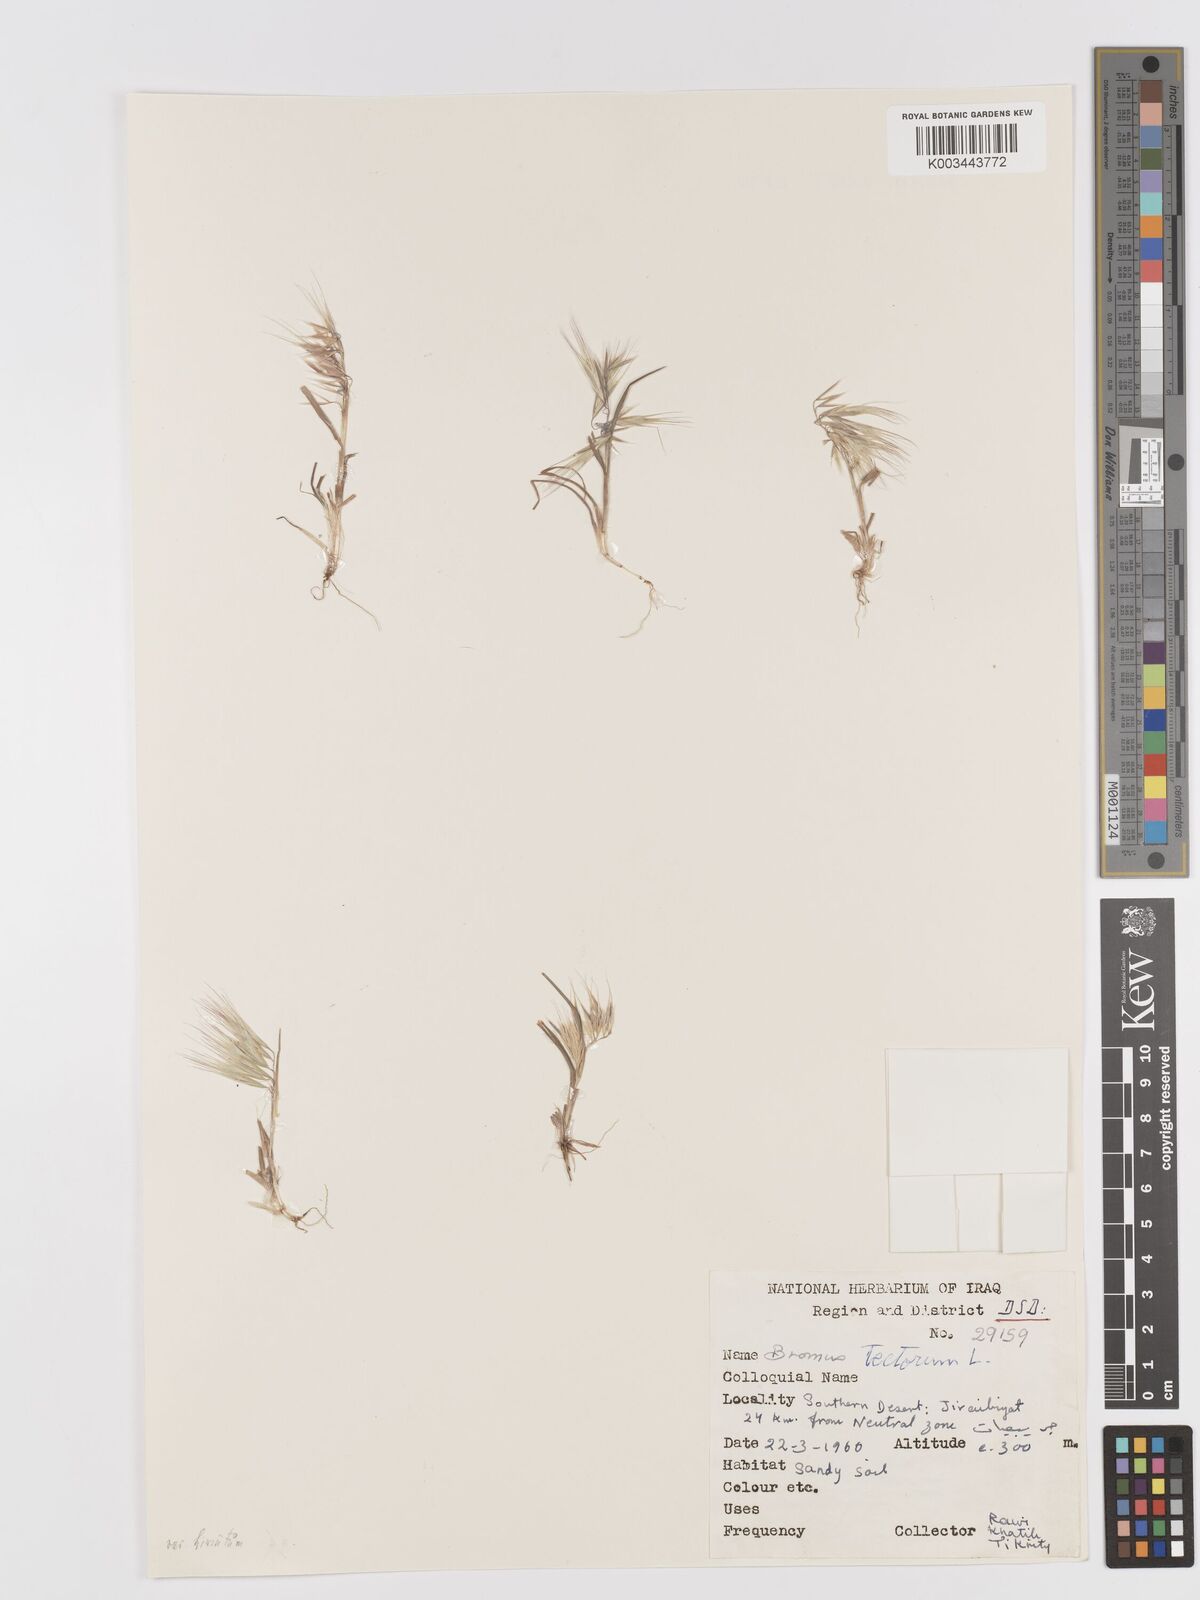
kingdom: Plantae
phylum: Tracheophyta
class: Liliopsida
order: Poales
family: Poaceae
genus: Bromus
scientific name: Bromus tectorum
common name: Cheatgrass
